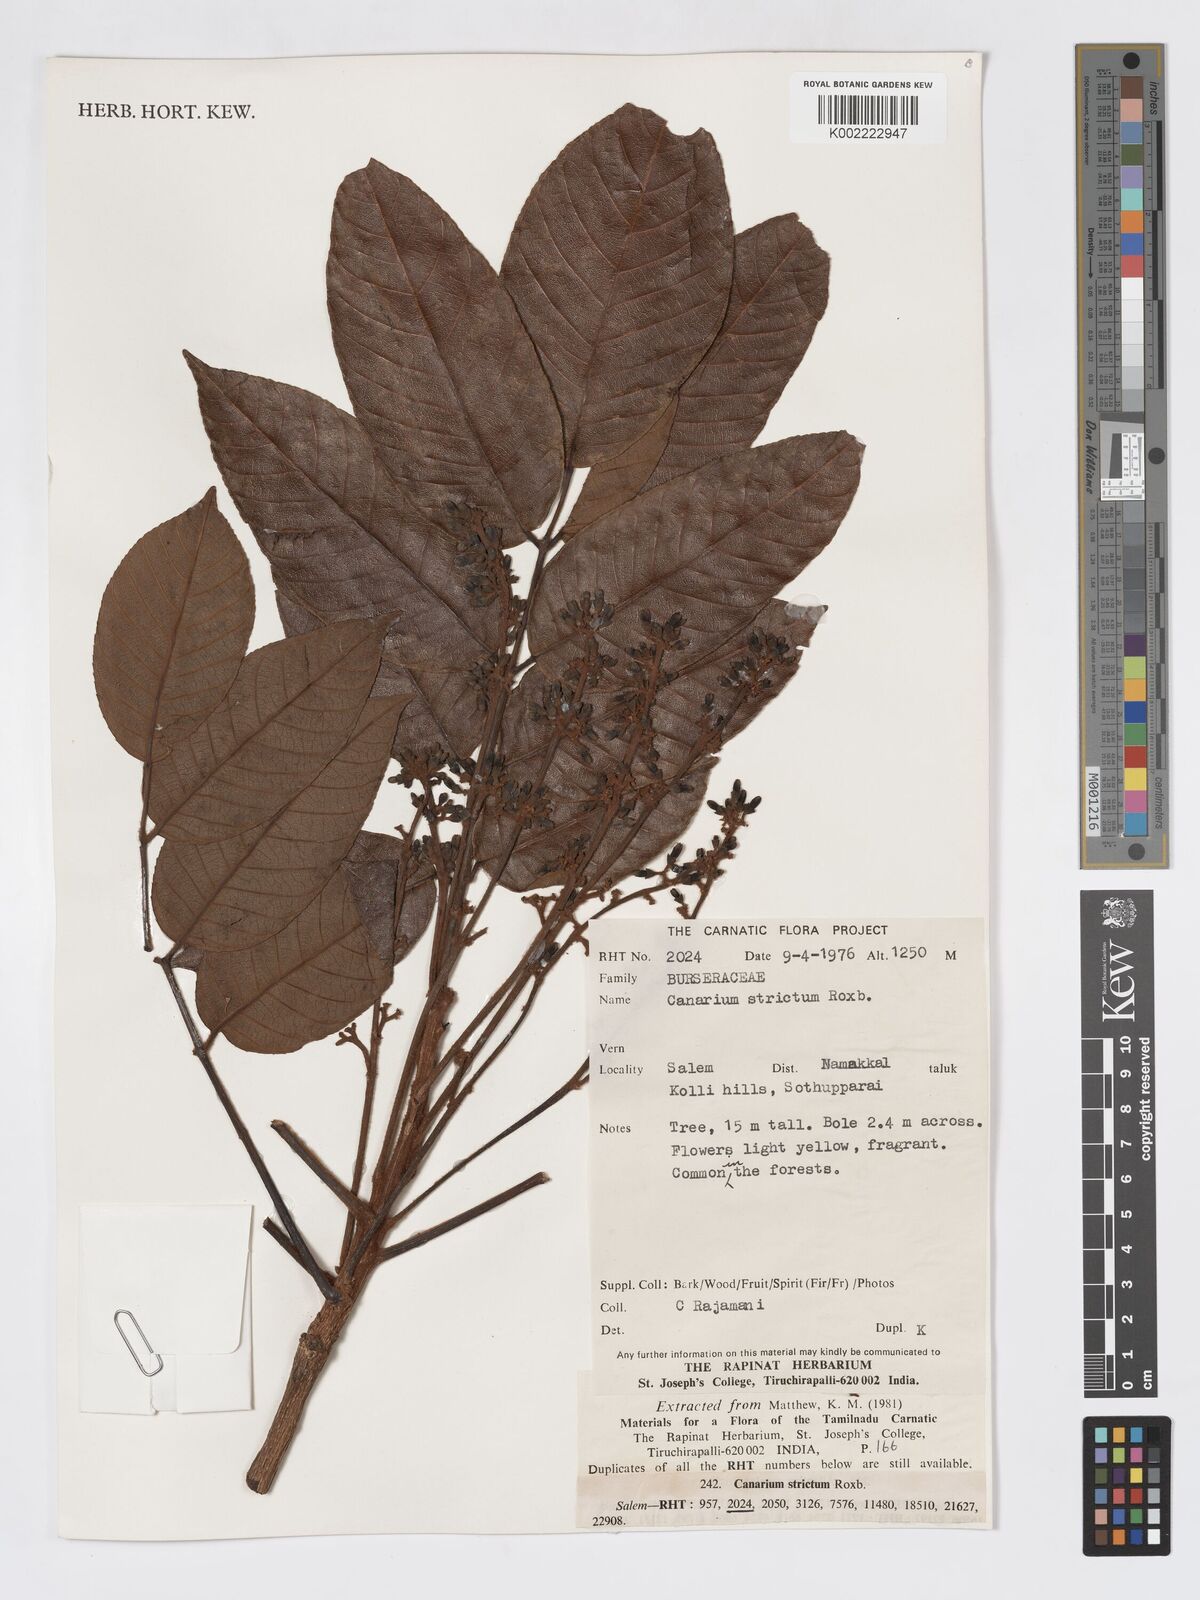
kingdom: Plantae
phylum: Tracheophyta
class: Magnoliopsida
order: Sapindales
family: Burseraceae
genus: Canarium
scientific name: Canarium strictum
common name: Indian white-mahogany
